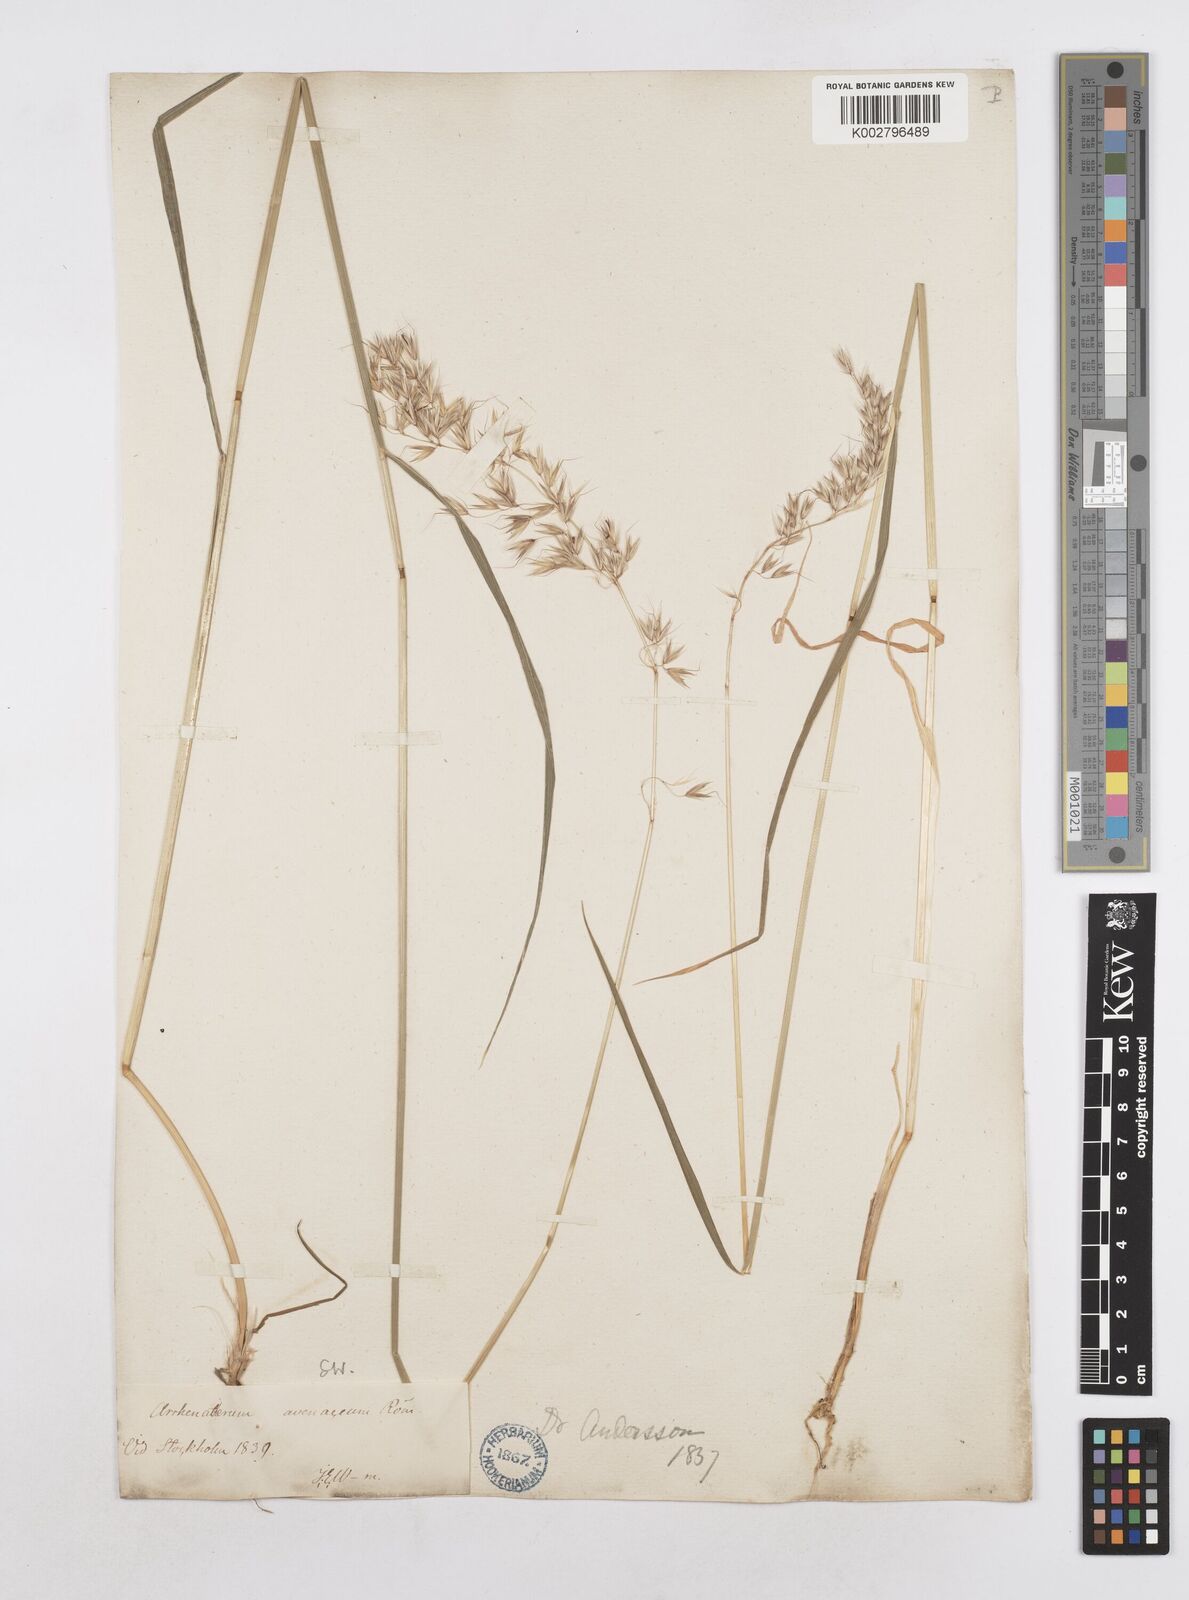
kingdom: Plantae
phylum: Tracheophyta
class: Liliopsida
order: Poales
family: Poaceae
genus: Arrhenatherum
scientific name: Arrhenatherum elatius
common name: Tall oatgrass
